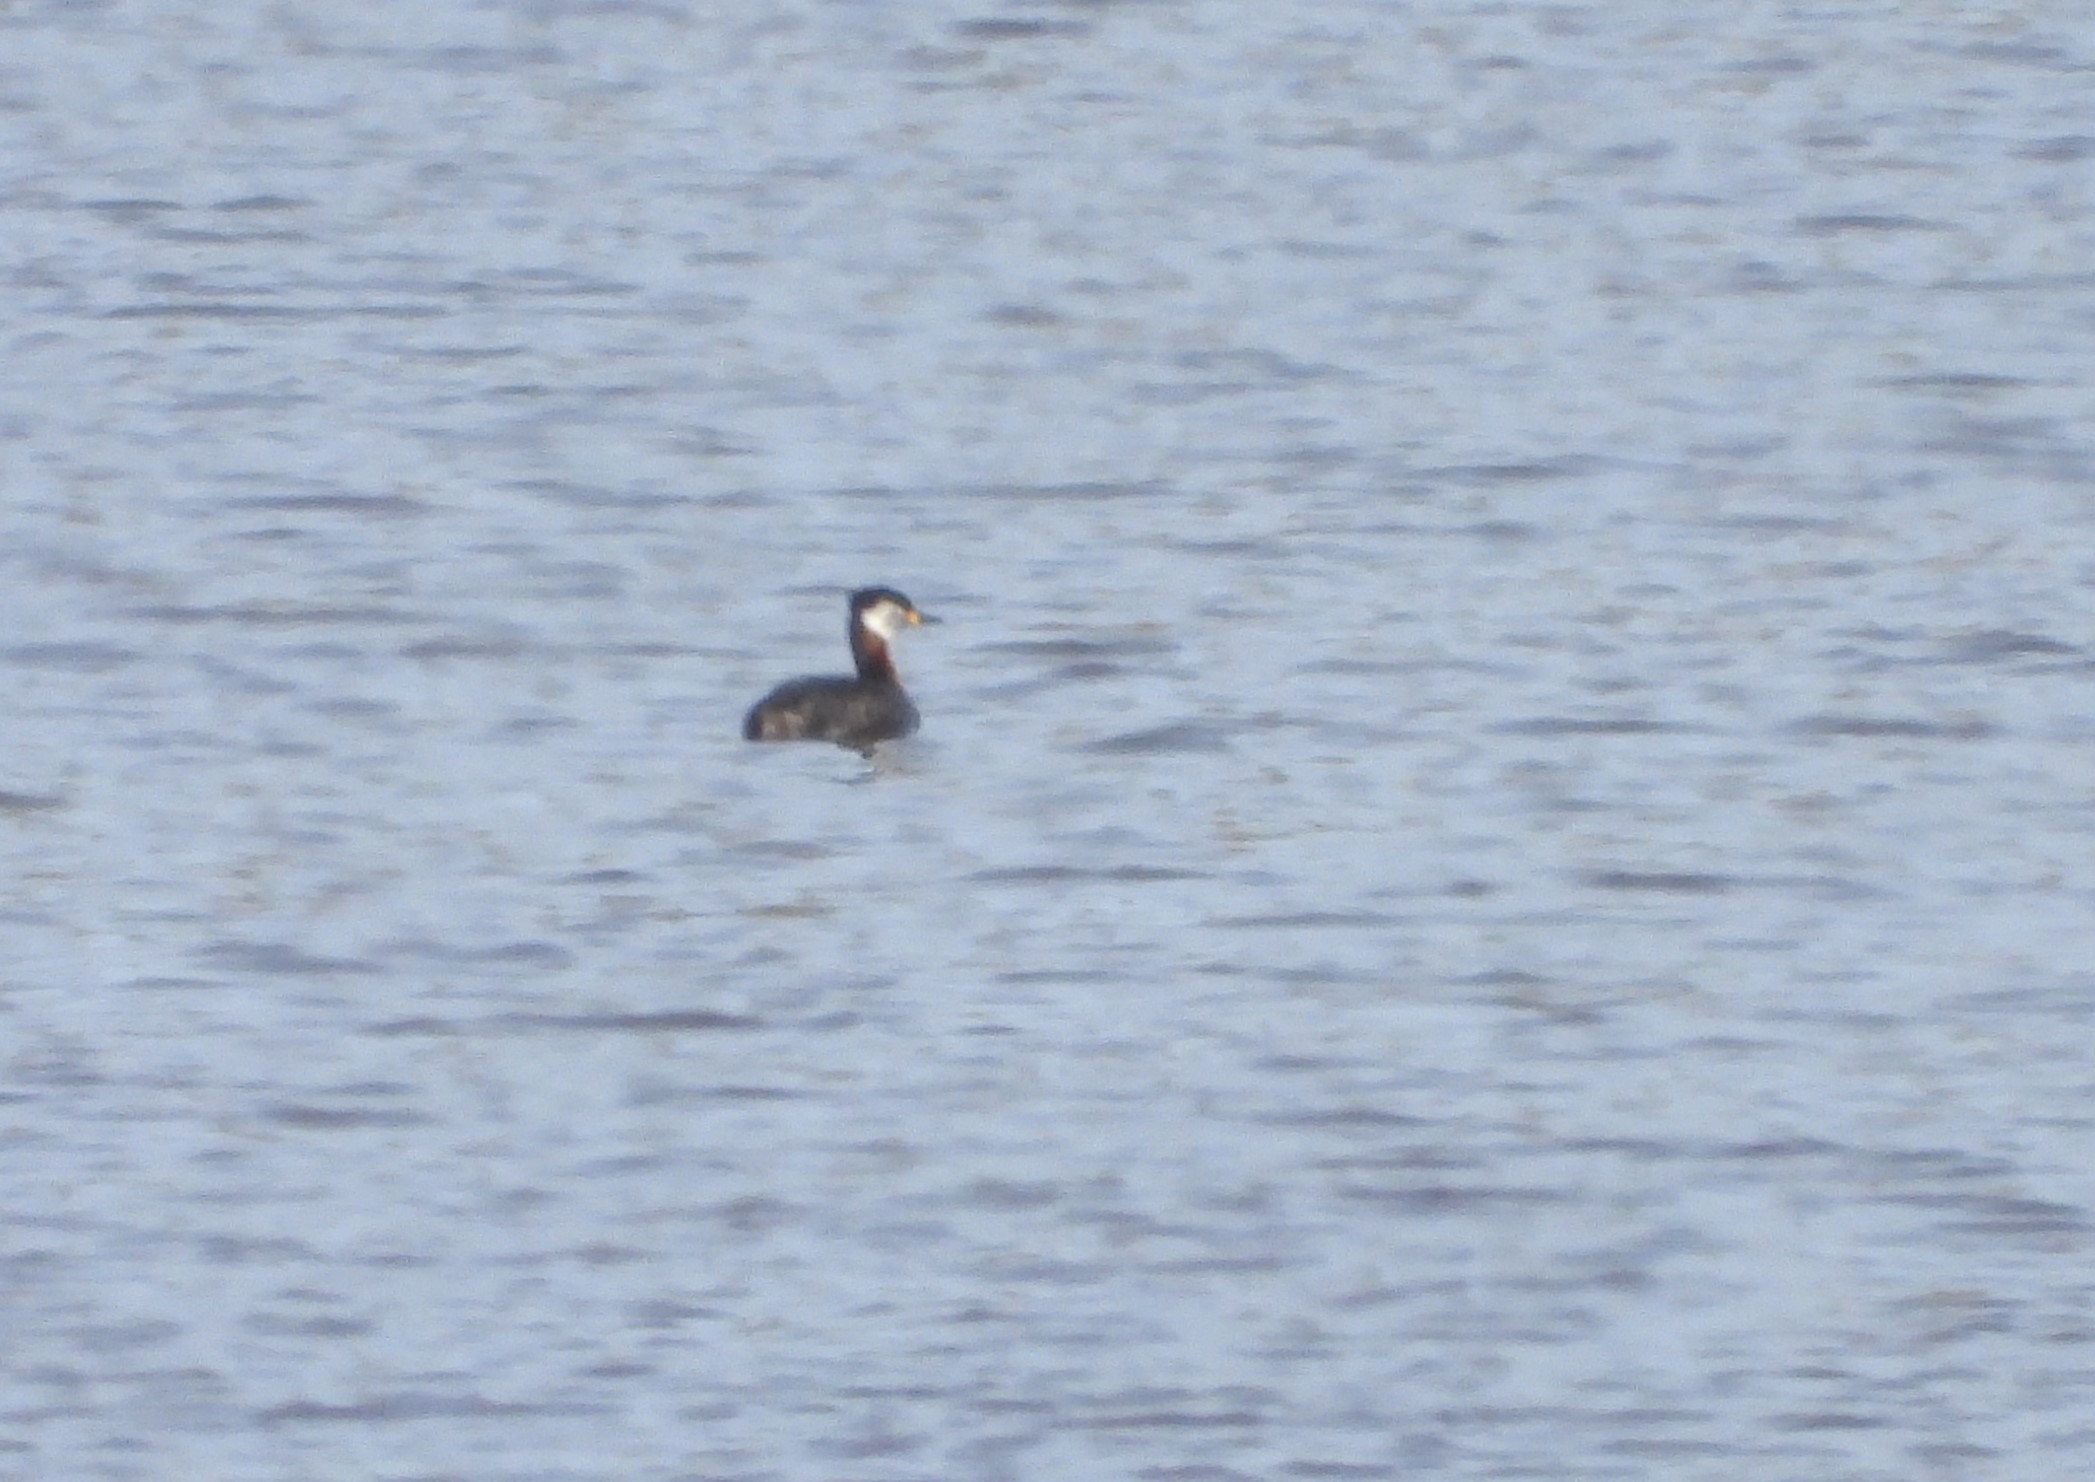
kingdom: Animalia
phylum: Chordata
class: Aves
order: Podicipediformes
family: Podicipedidae
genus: Podiceps
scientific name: Podiceps grisegena
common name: Gråstrubet lappedykker
